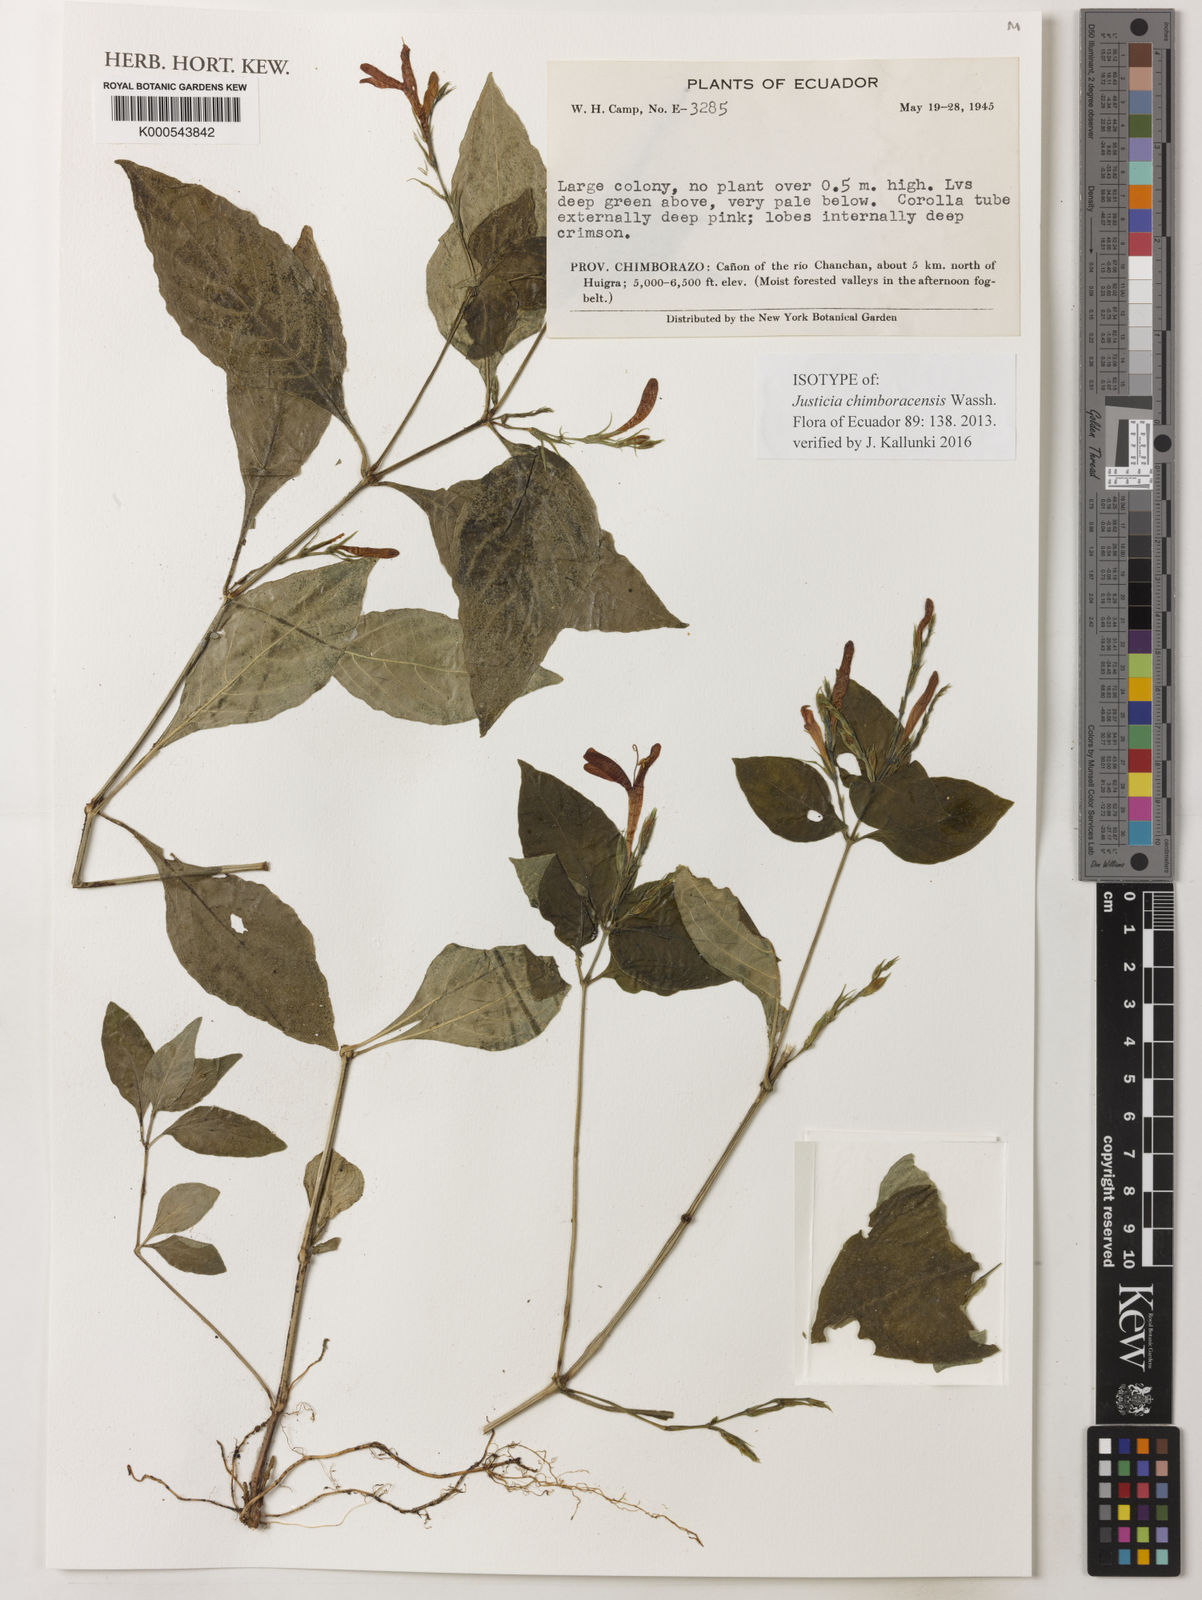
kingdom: Plantae
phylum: Tracheophyta
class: Magnoliopsida
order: Lamiales
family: Acanthaceae
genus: Justicia
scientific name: Justicia chimboracensis
